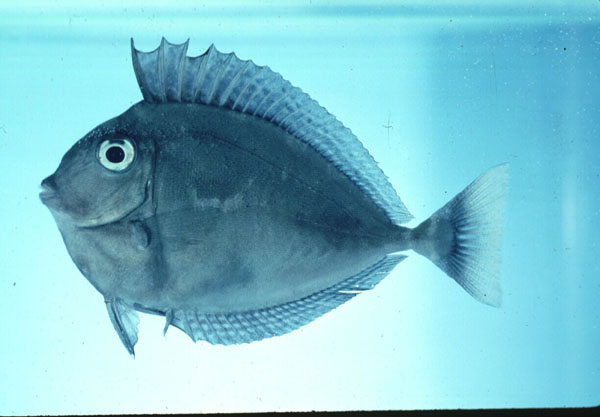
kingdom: Animalia
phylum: Chordata
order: Perciformes
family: Acanthuridae
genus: Naso
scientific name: Naso
